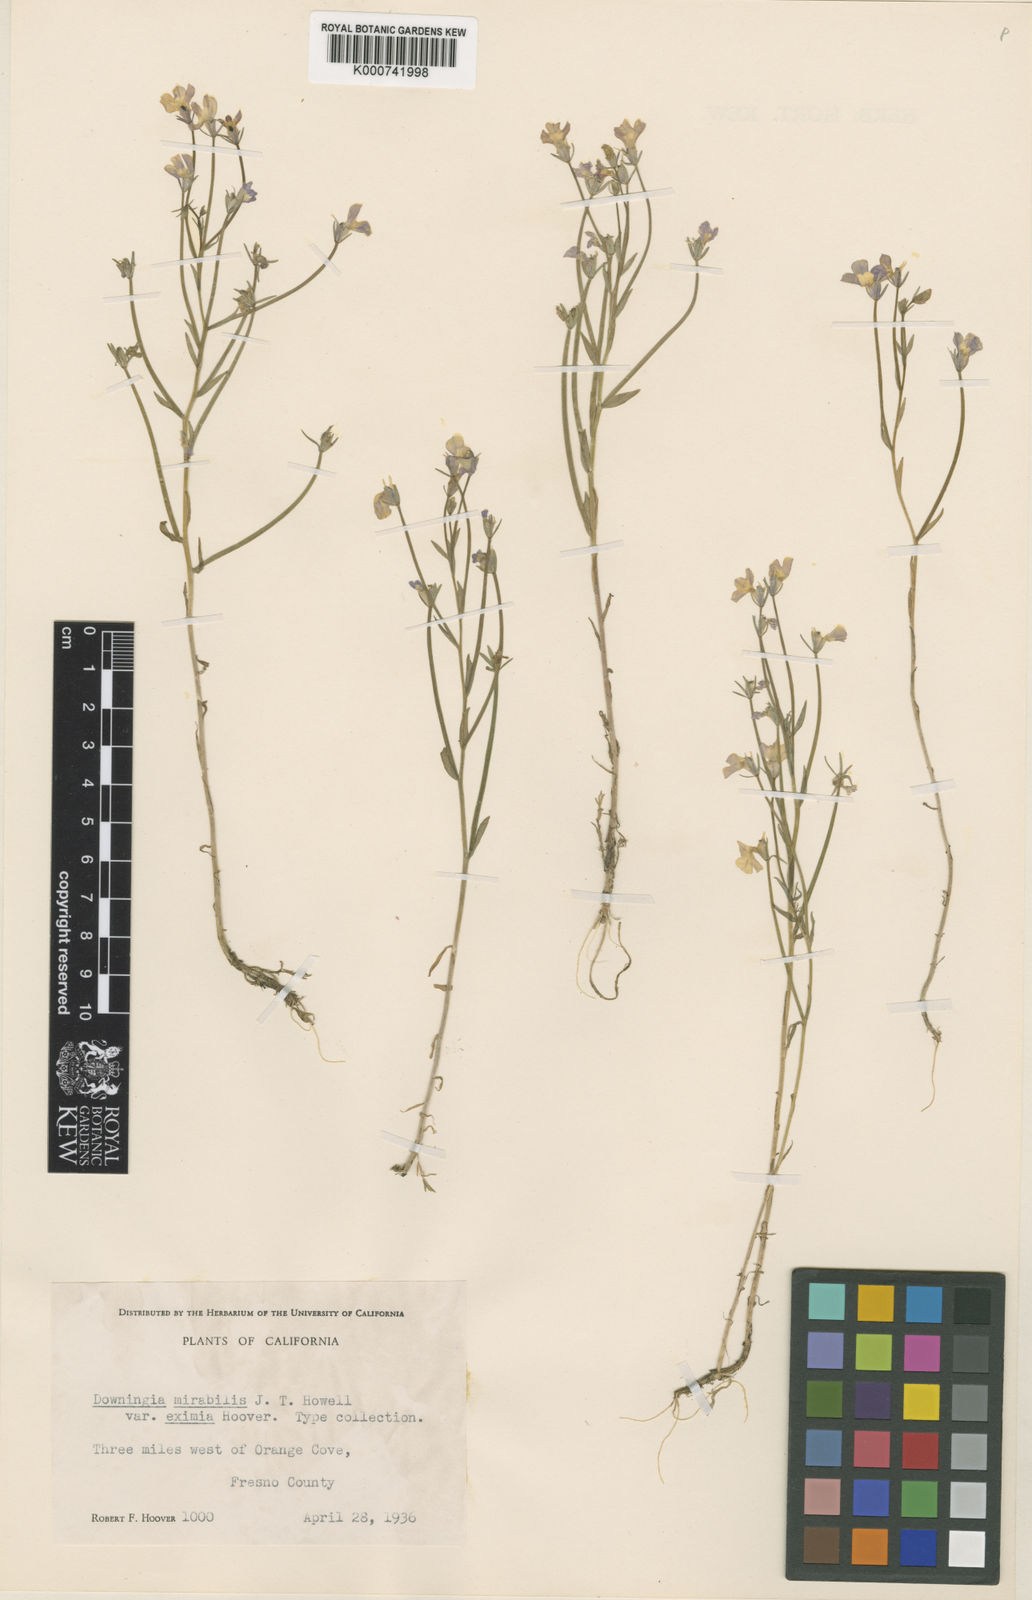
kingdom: Plantae
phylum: Tracheophyta
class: Magnoliopsida
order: Asterales
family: Campanulaceae
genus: Downingia
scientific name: Downingia ornatissima
